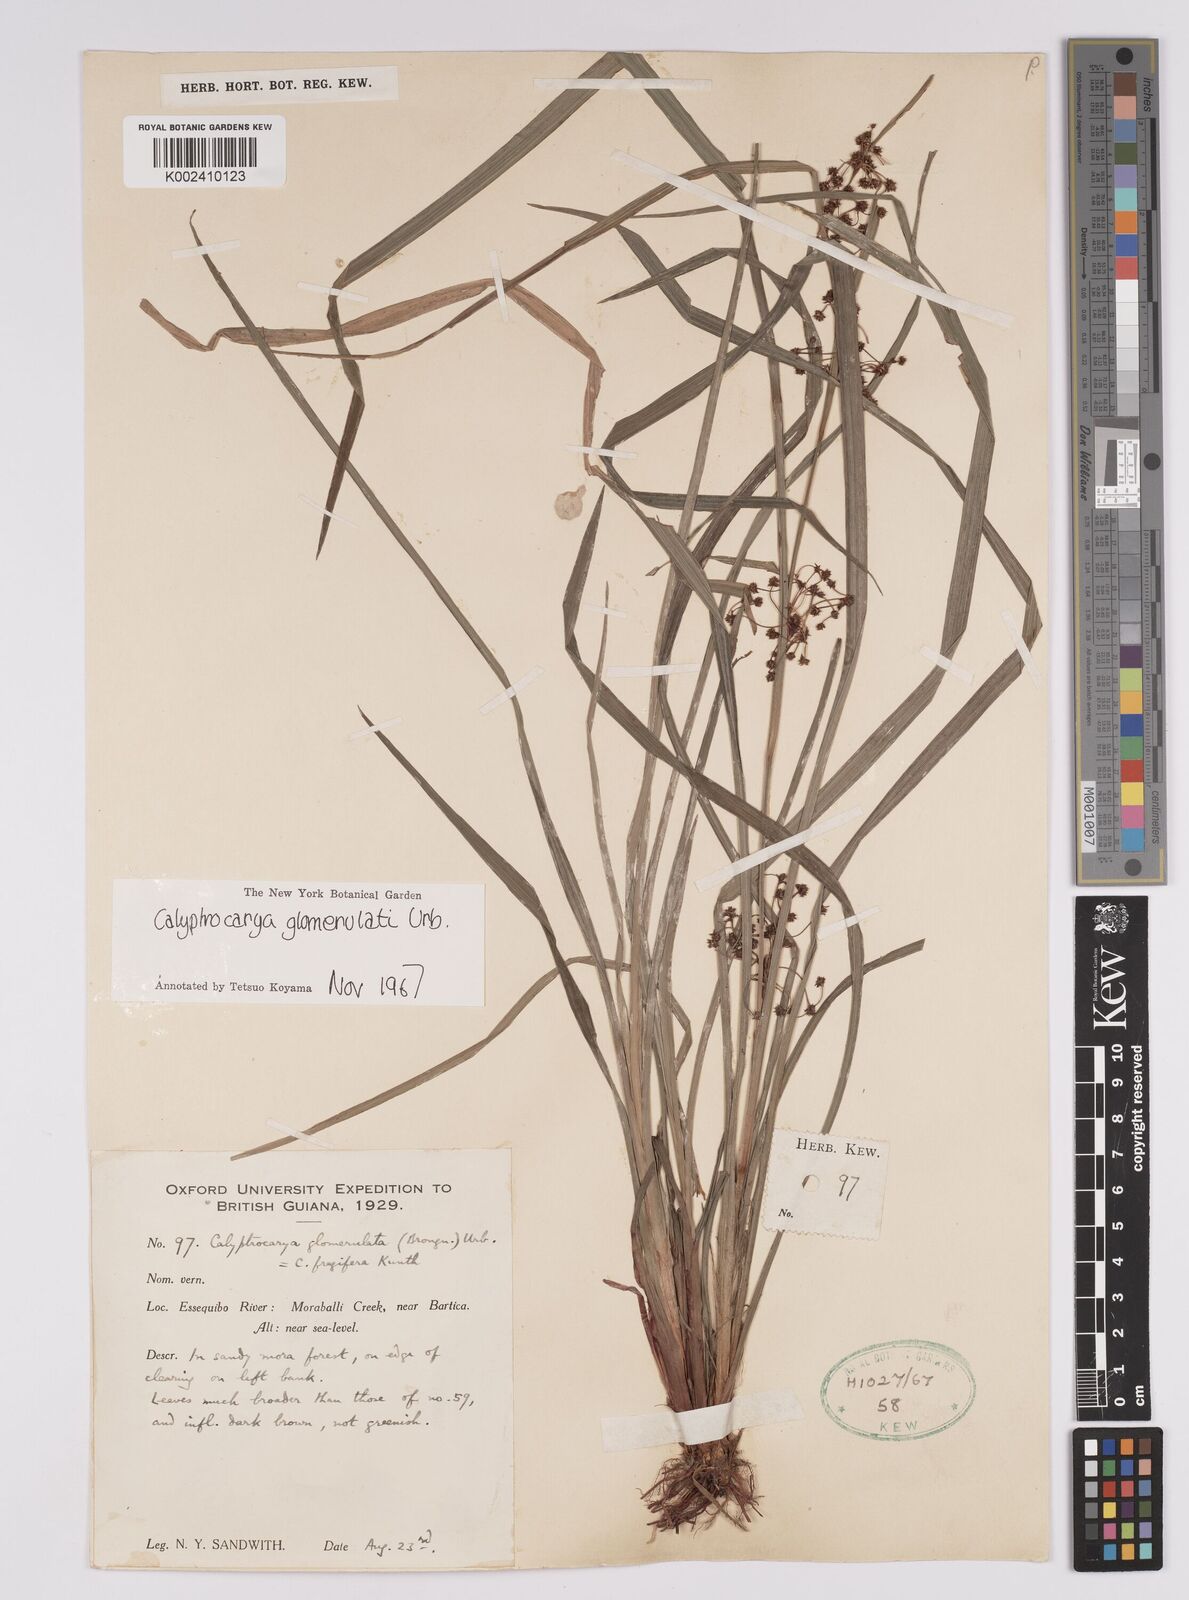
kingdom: Plantae
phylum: Tracheophyta
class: Liliopsida
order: Poales
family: Cyperaceae
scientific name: Cyperaceae
